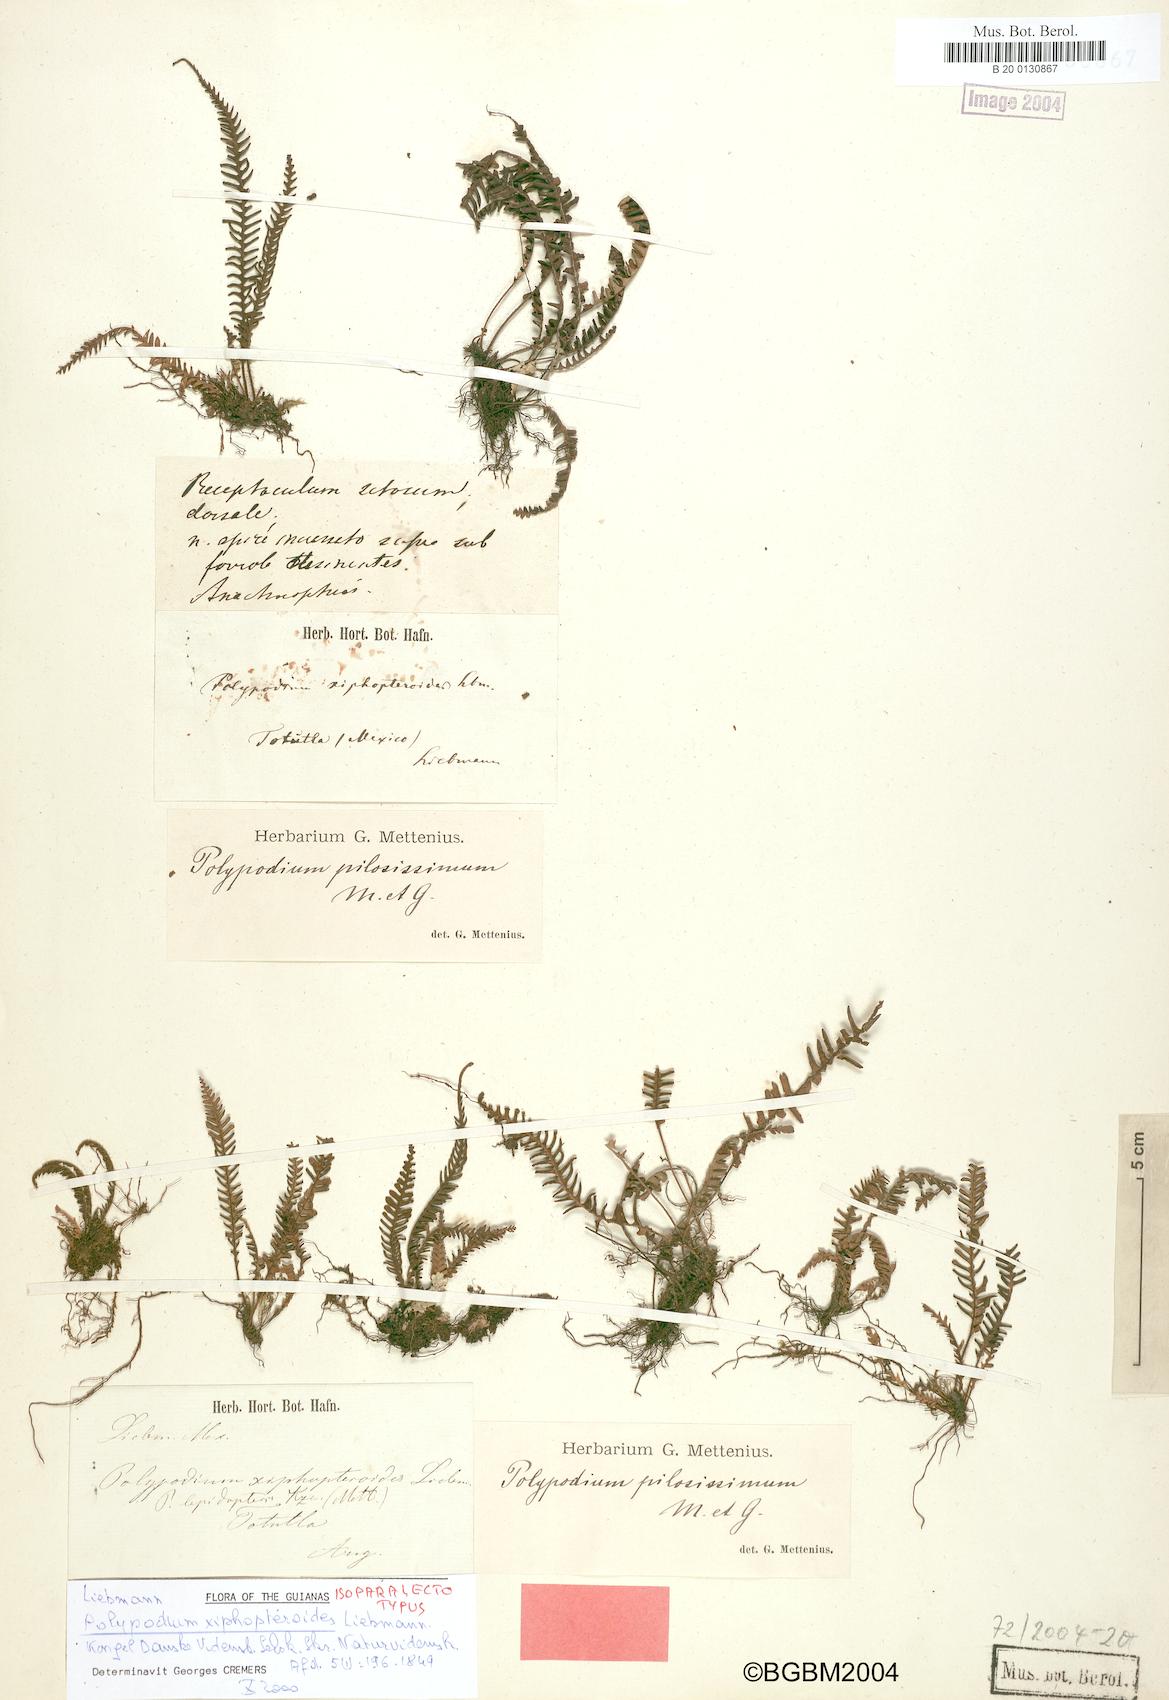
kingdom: Plantae
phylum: Tracheophyta
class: Polypodiopsida
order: Polypodiales
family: Polypodiaceae
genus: Melpomene
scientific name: Melpomene xiphopteroides
